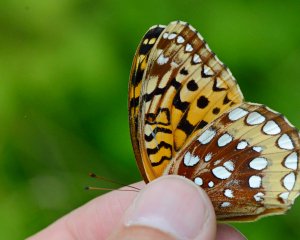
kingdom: Animalia
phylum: Arthropoda
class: Insecta
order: Lepidoptera
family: Nymphalidae
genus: Speyeria
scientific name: Speyeria cybele
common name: Great Spangled Fritillary
